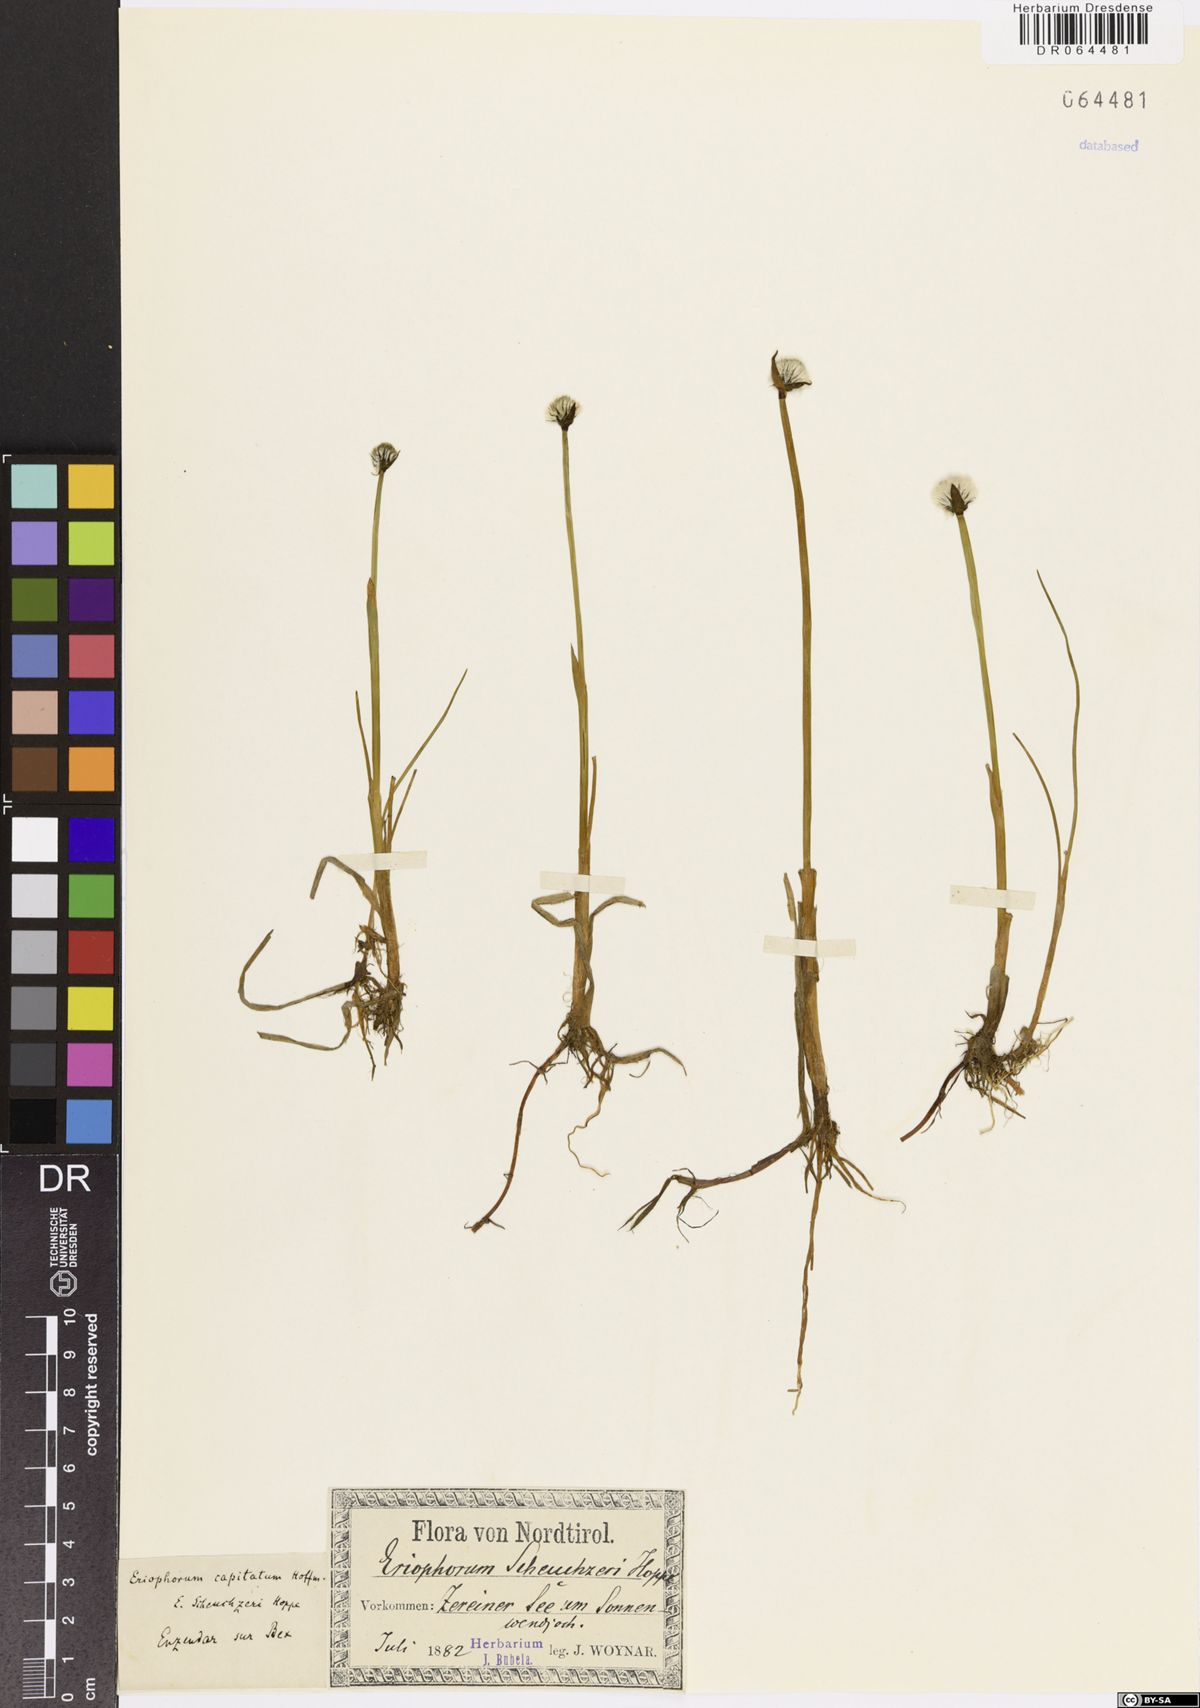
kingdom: Plantae
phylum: Tracheophyta
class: Liliopsida
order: Poales
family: Cyperaceae
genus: Eriophorum
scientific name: Eriophorum scheuchzeri
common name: Scheuchzer's cottongrass
